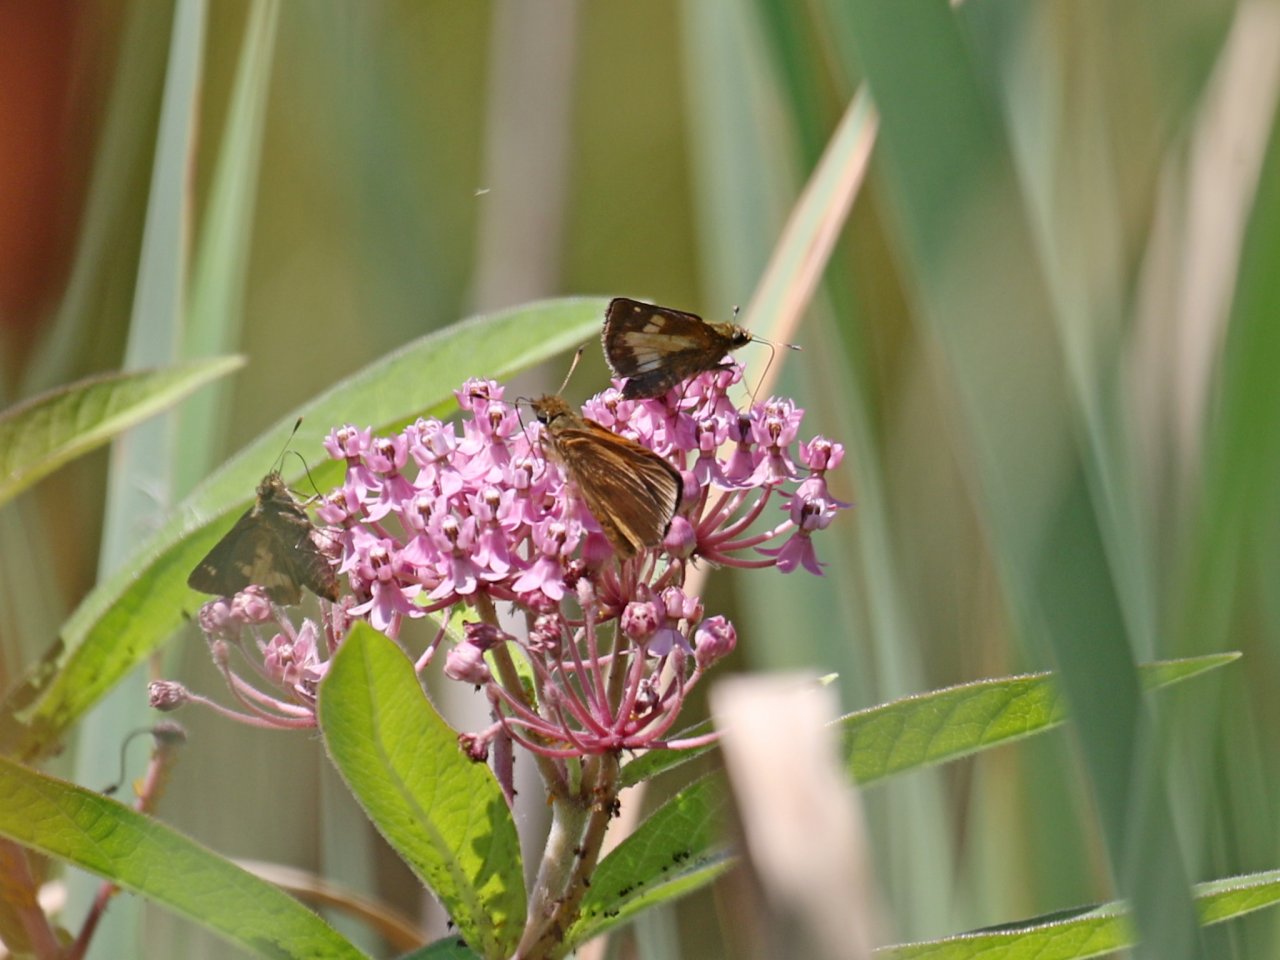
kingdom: Animalia
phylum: Arthropoda
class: Insecta
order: Lepidoptera
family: Hesperiidae
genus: Poanes
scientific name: Poanes massasoit
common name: Mulberry Wing
